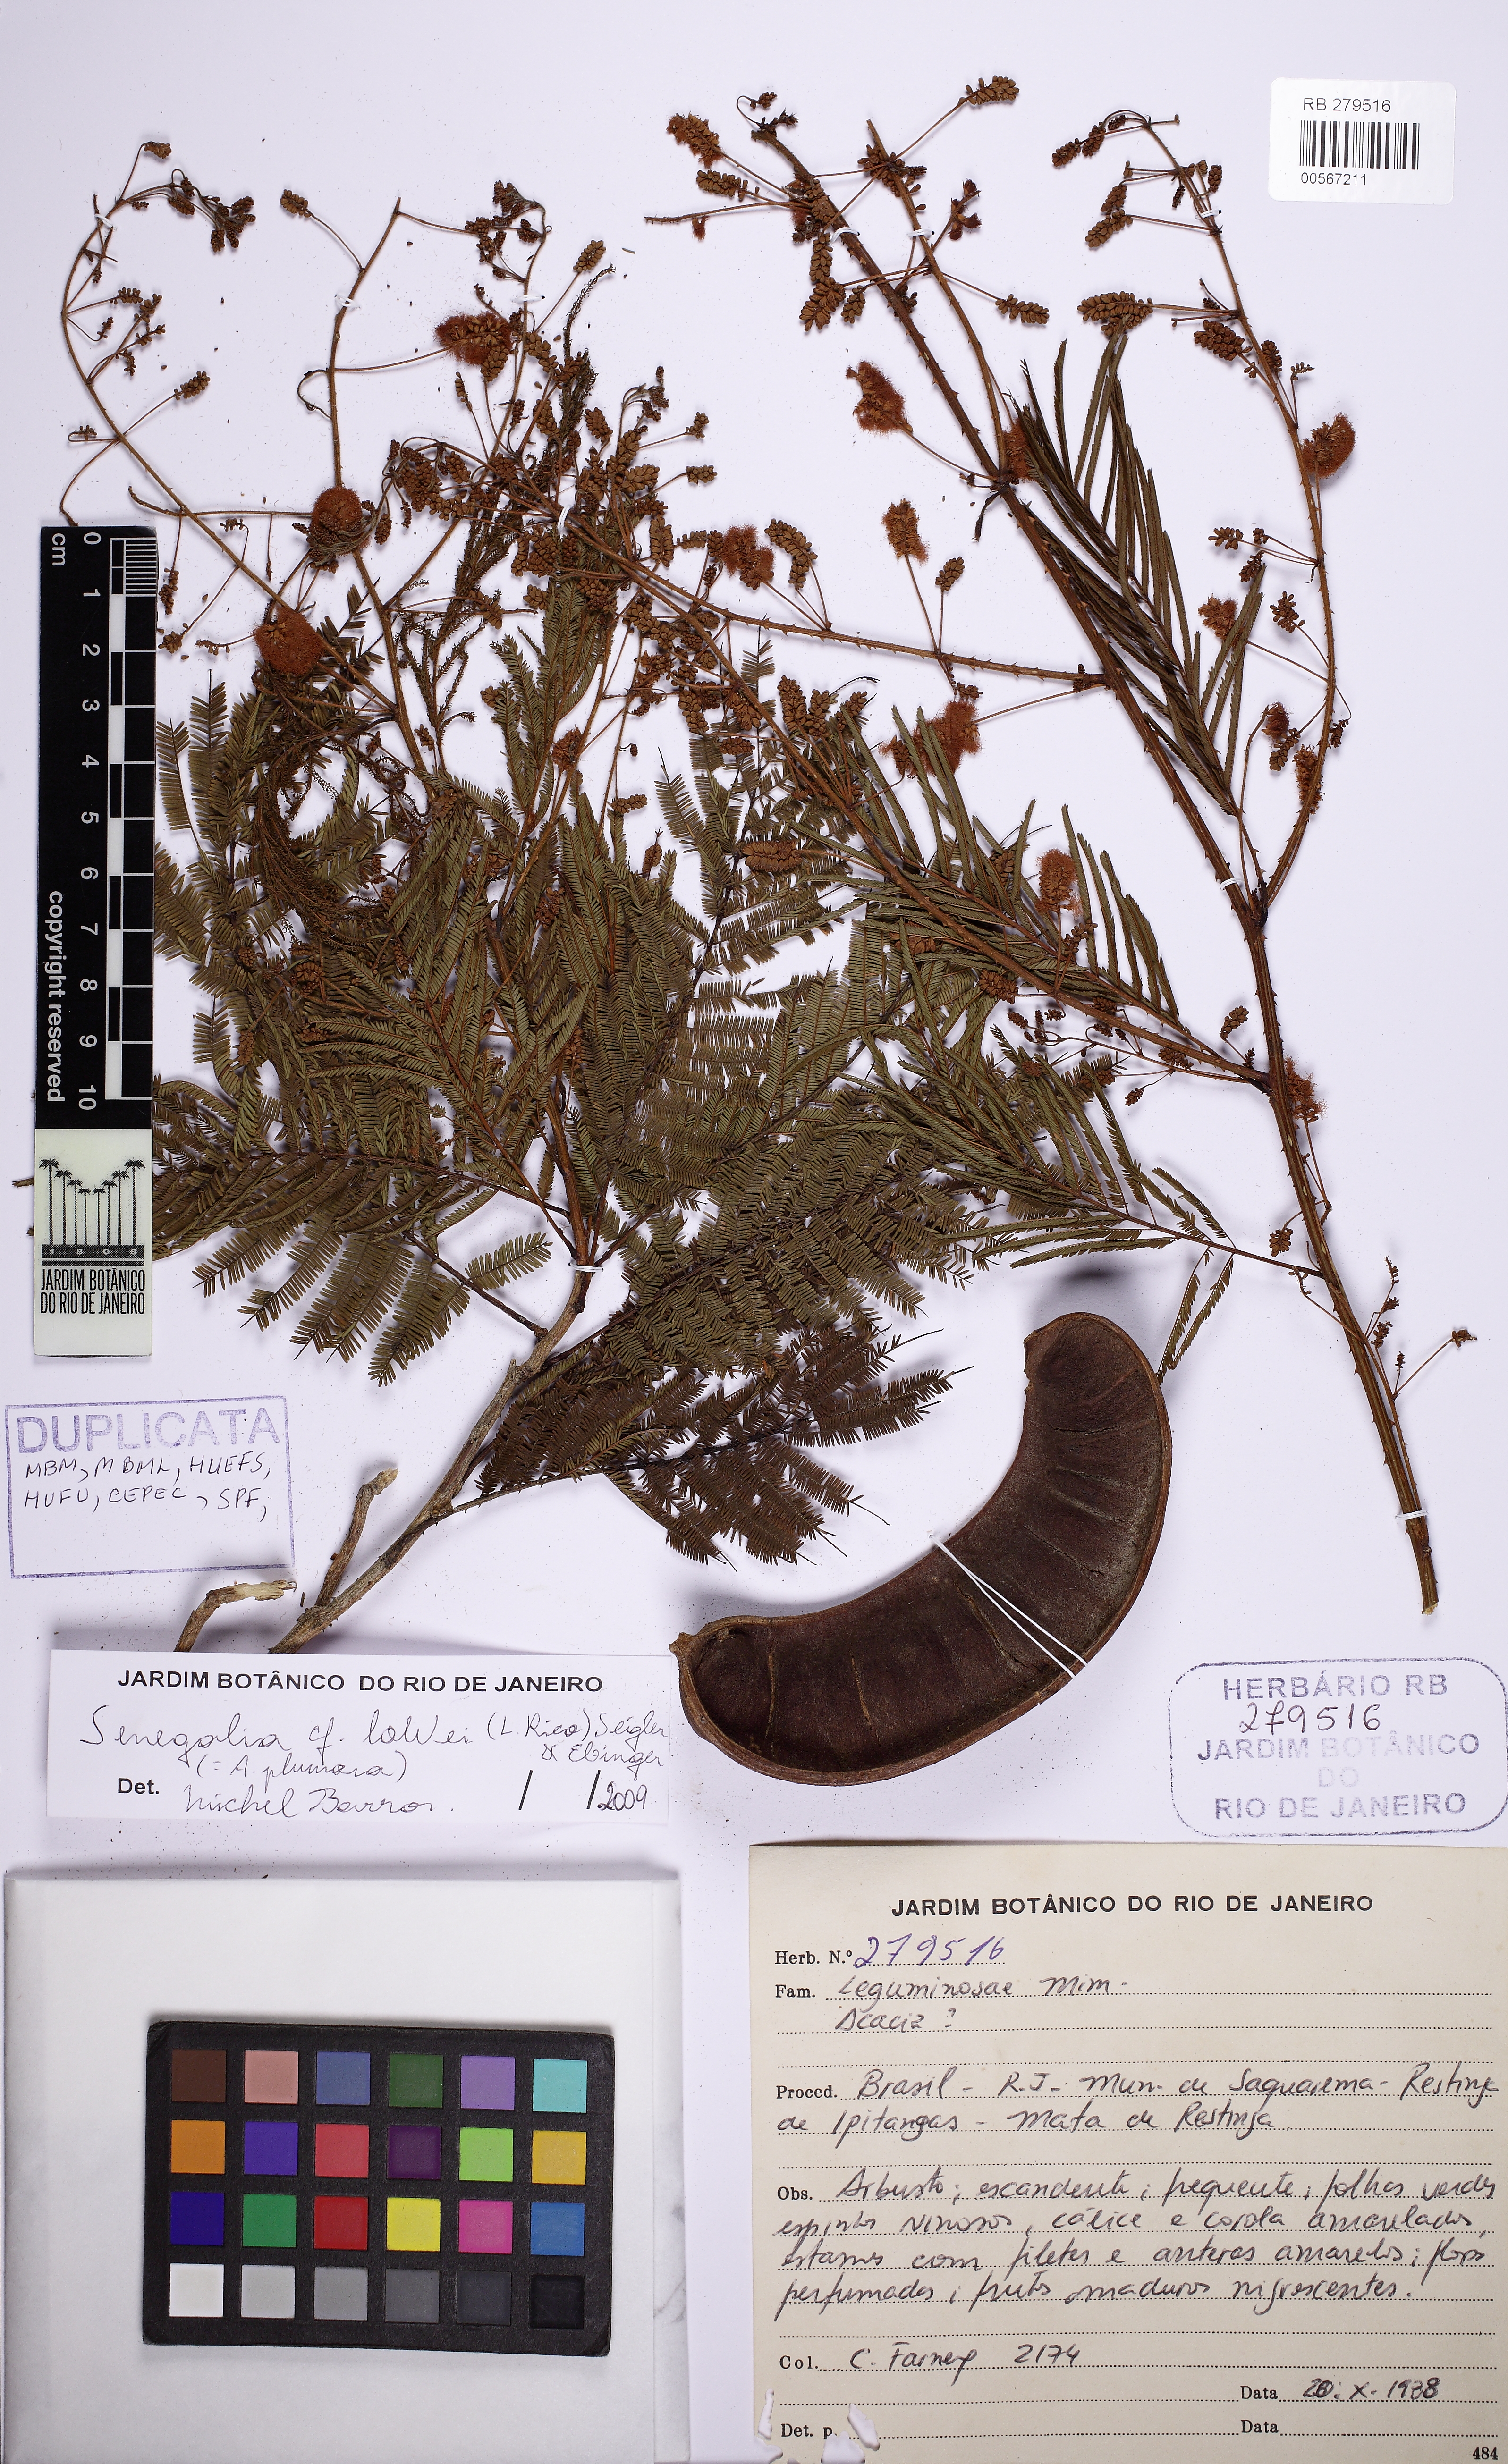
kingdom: Plantae
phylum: Tracheophyta
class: Magnoliopsida
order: Fabales
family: Fabaceae
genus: Senegalia
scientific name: Senegalia angico
